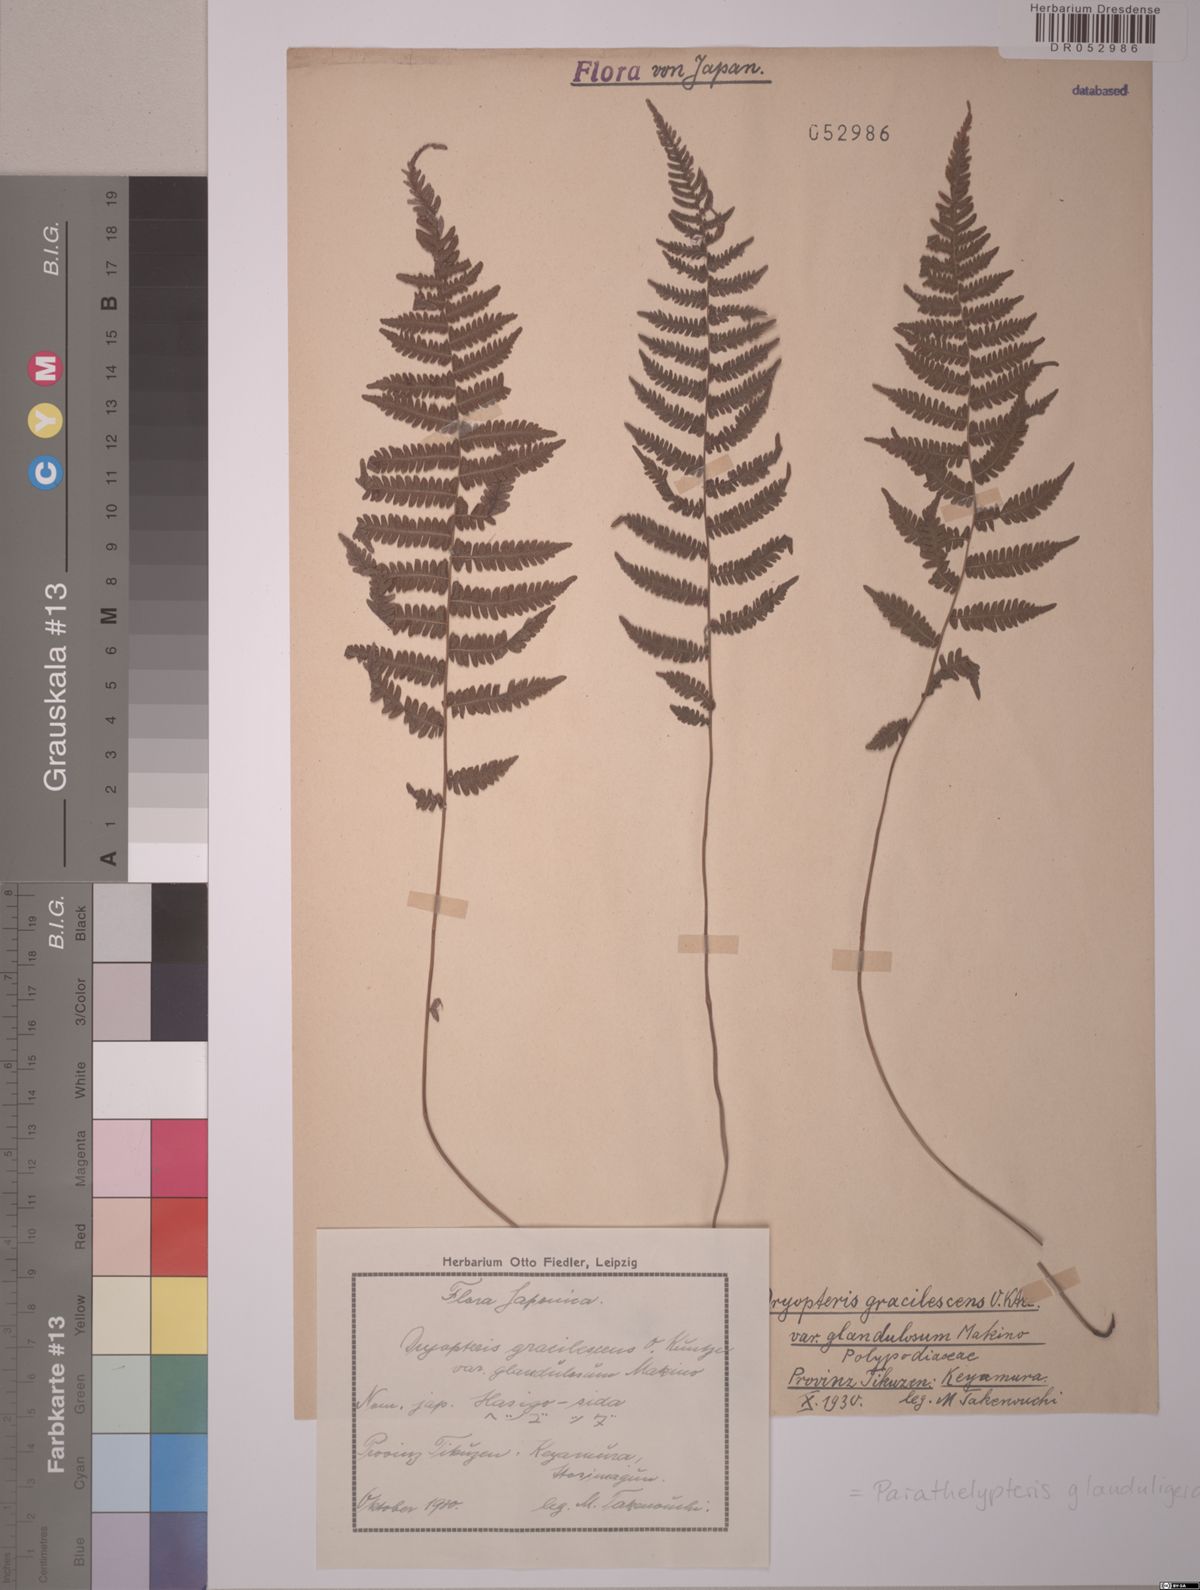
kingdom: Plantae
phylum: Tracheophyta
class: Polypodiopsida
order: Polypodiales
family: Thelypteridaceae
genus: Amauropelta
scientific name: Amauropelta glanduligera
